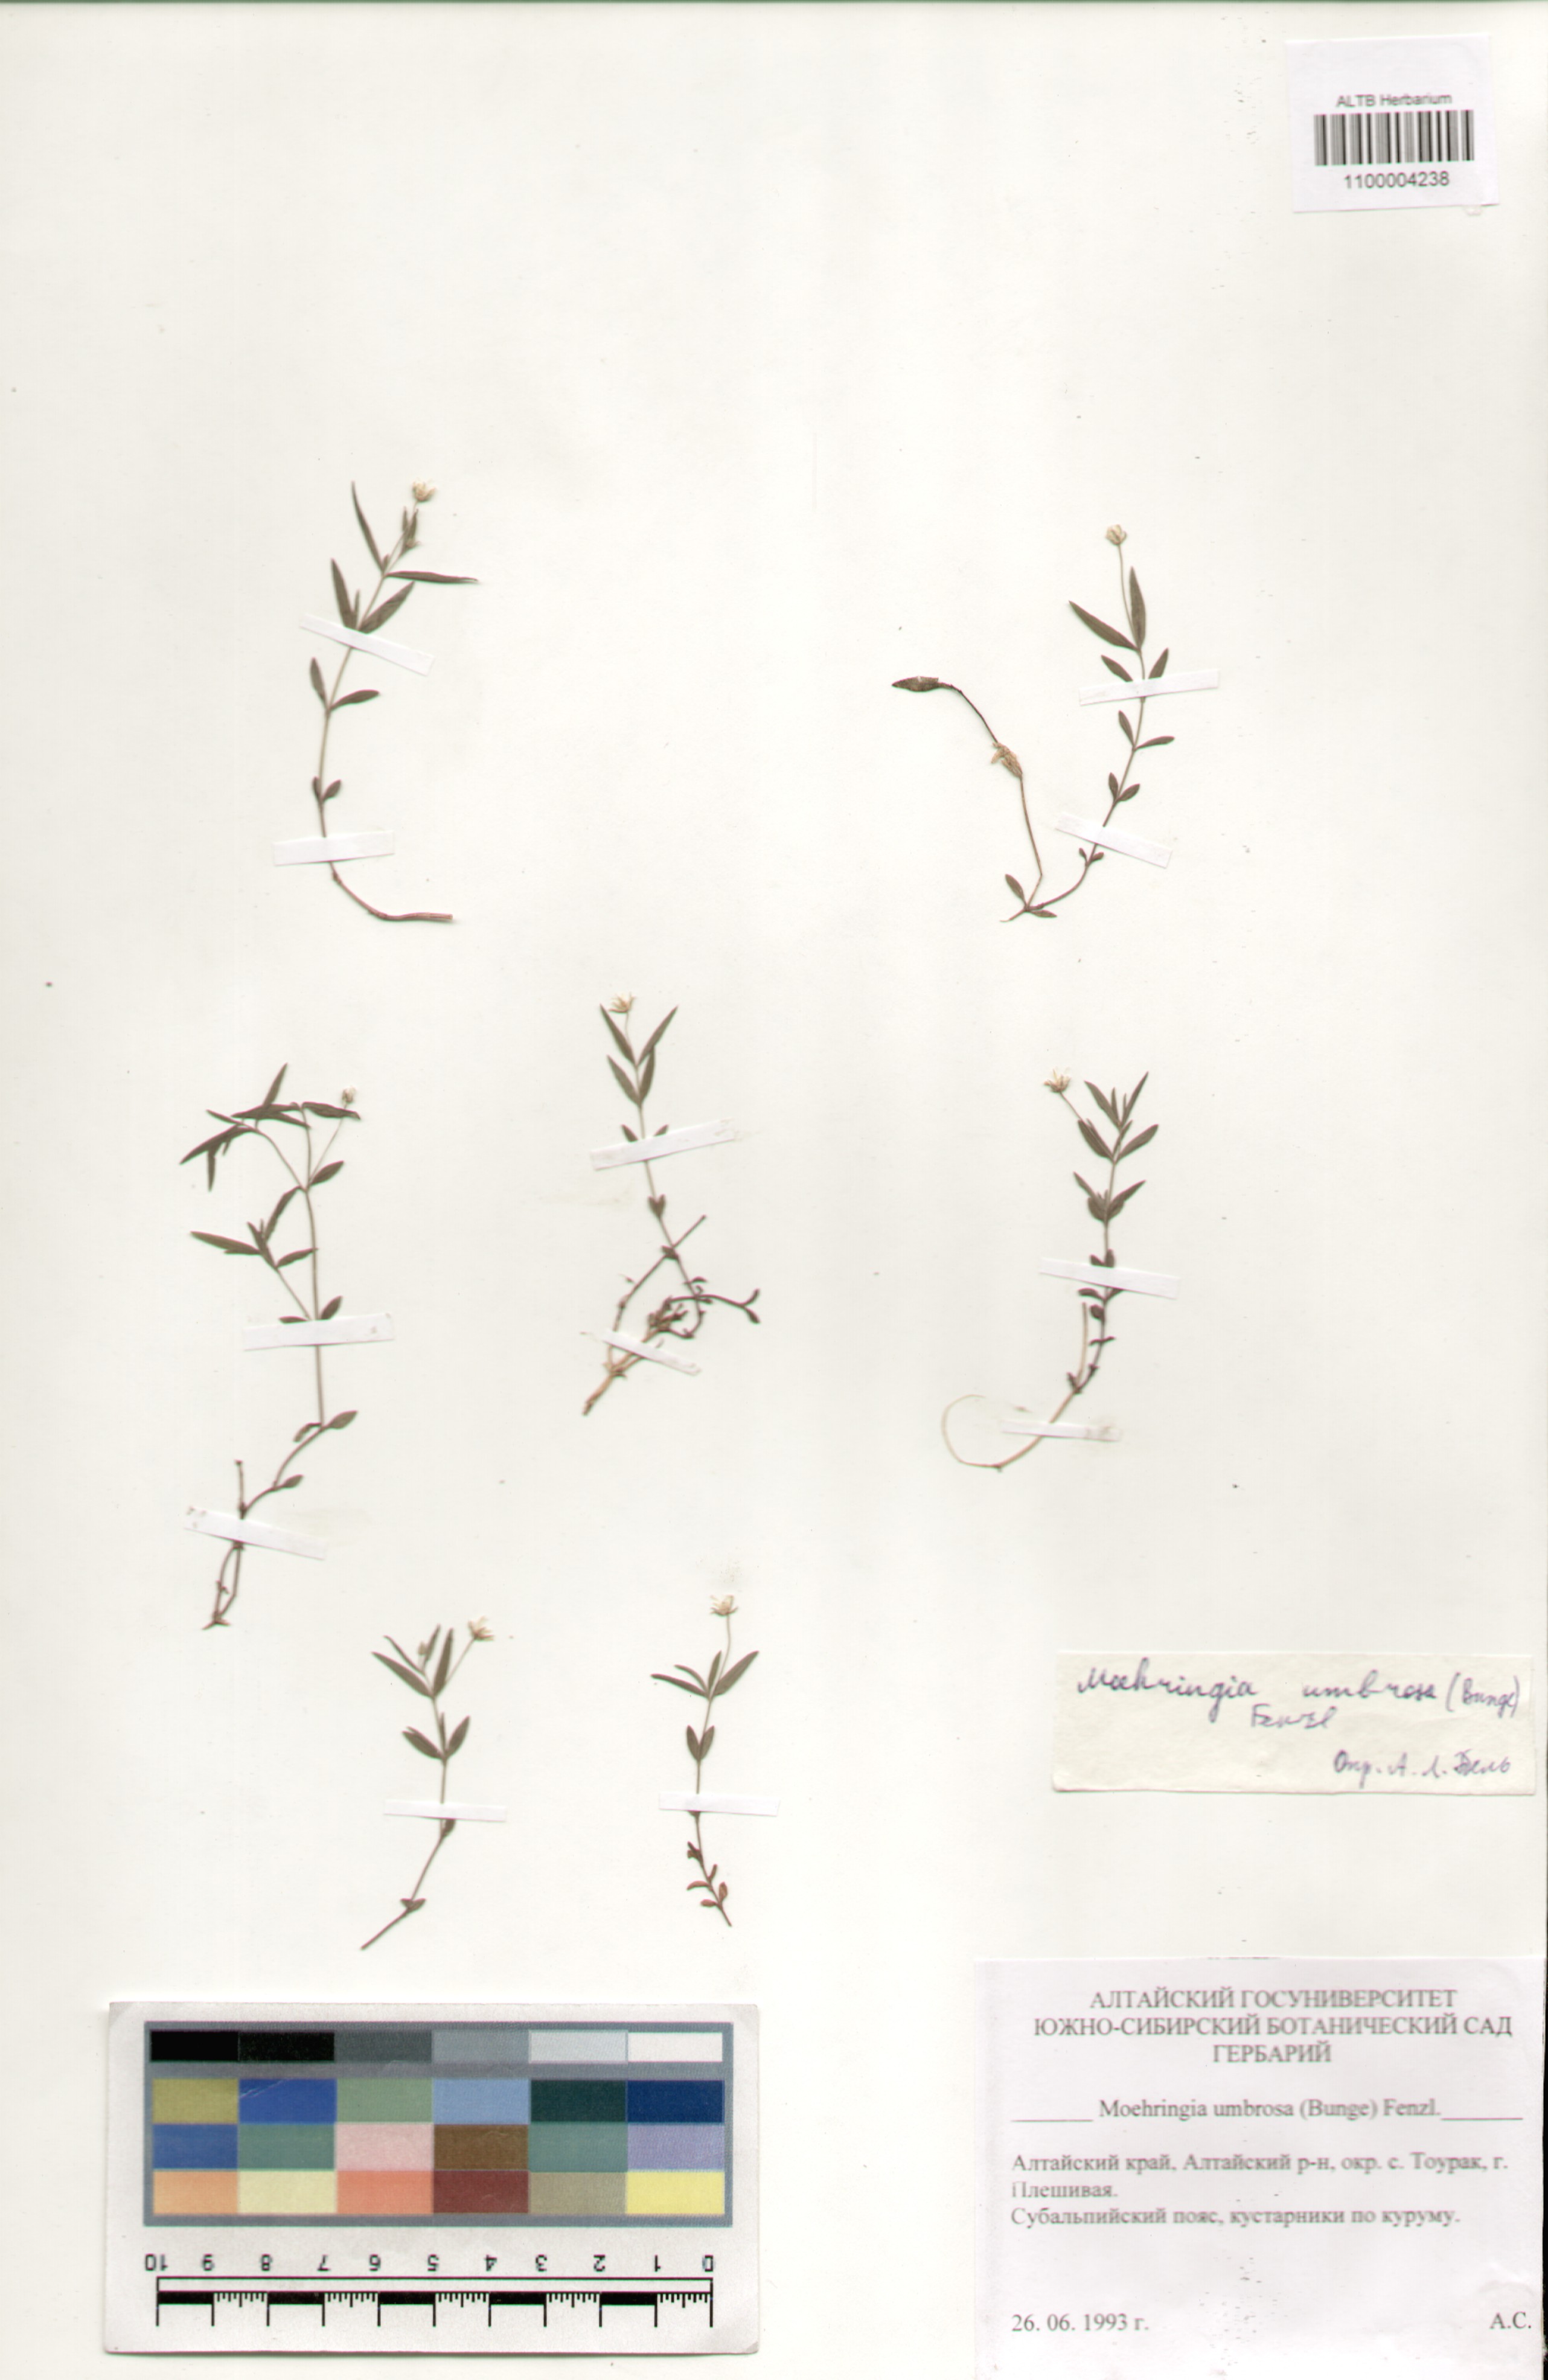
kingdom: Plantae
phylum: Tracheophyta
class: Magnoliopsida
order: Caryophyllales
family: Caryophyllaceae
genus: Moehringia
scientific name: Moehringia umbrosa
